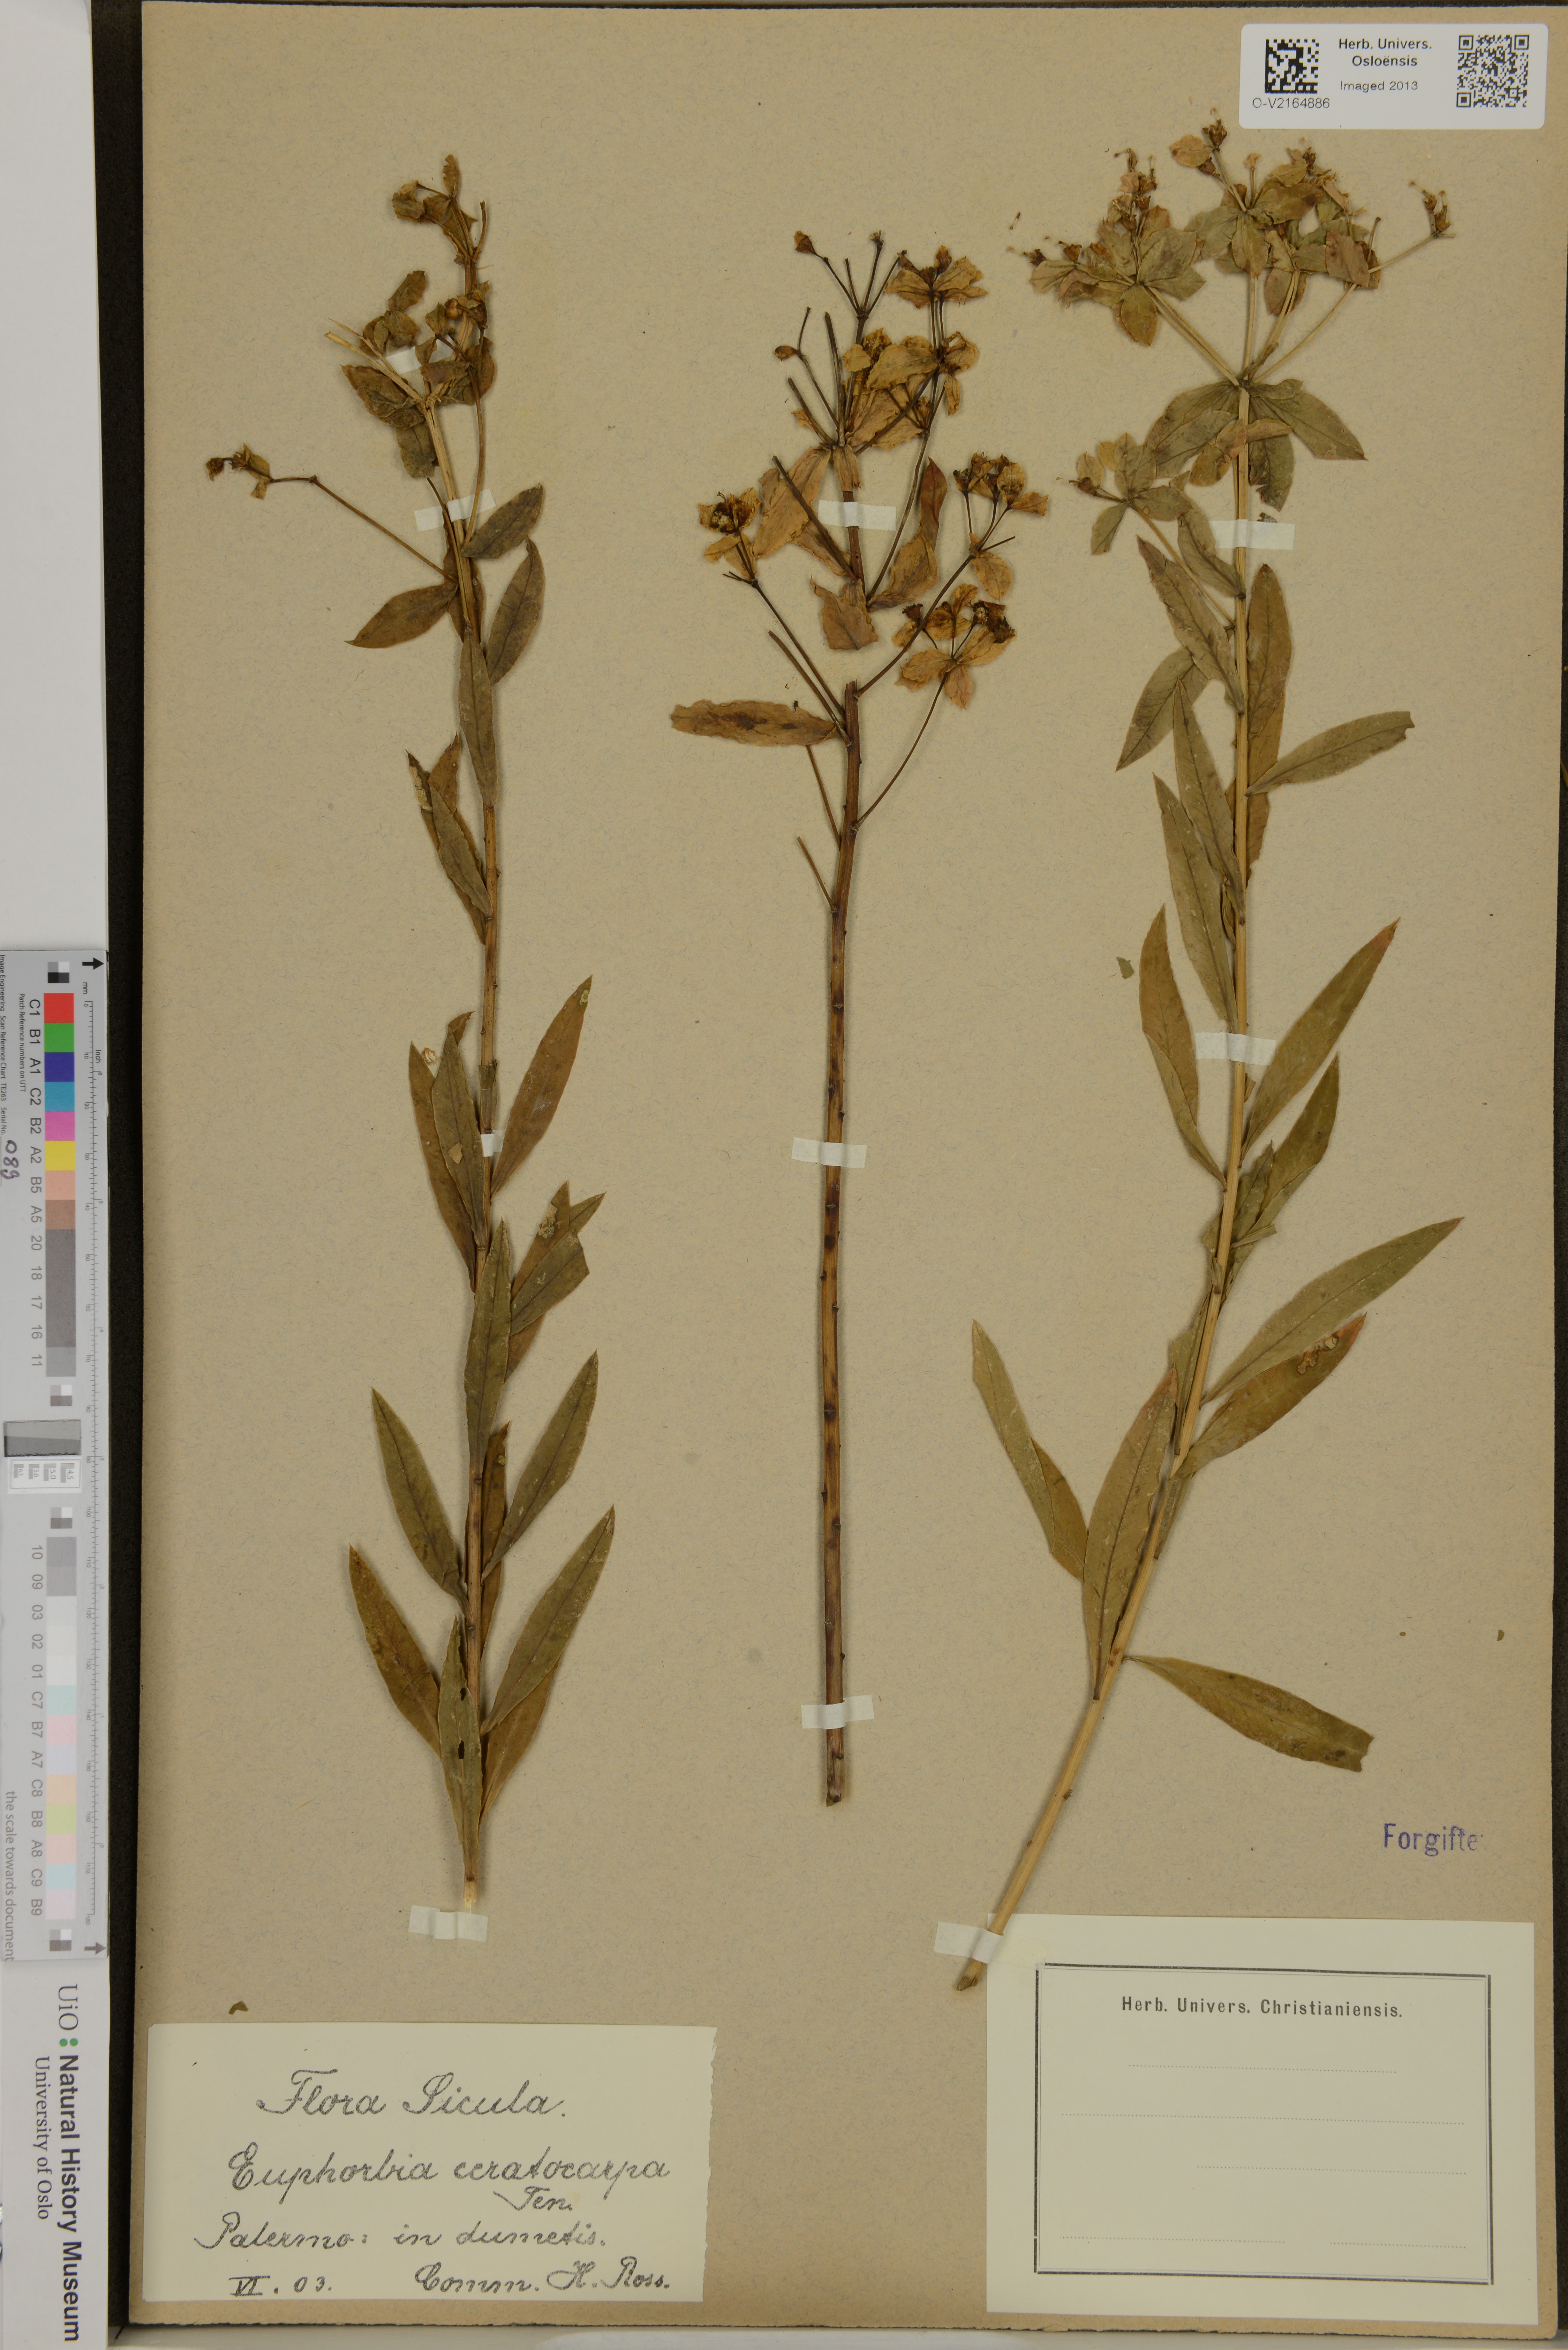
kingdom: Plantae
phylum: Tracheophyta
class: Magnoliopsida
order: Malpighiales
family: Euphorbiaceae
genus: Euphorbia
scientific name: Euphorbia ceratocarpa
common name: Horned spurge
